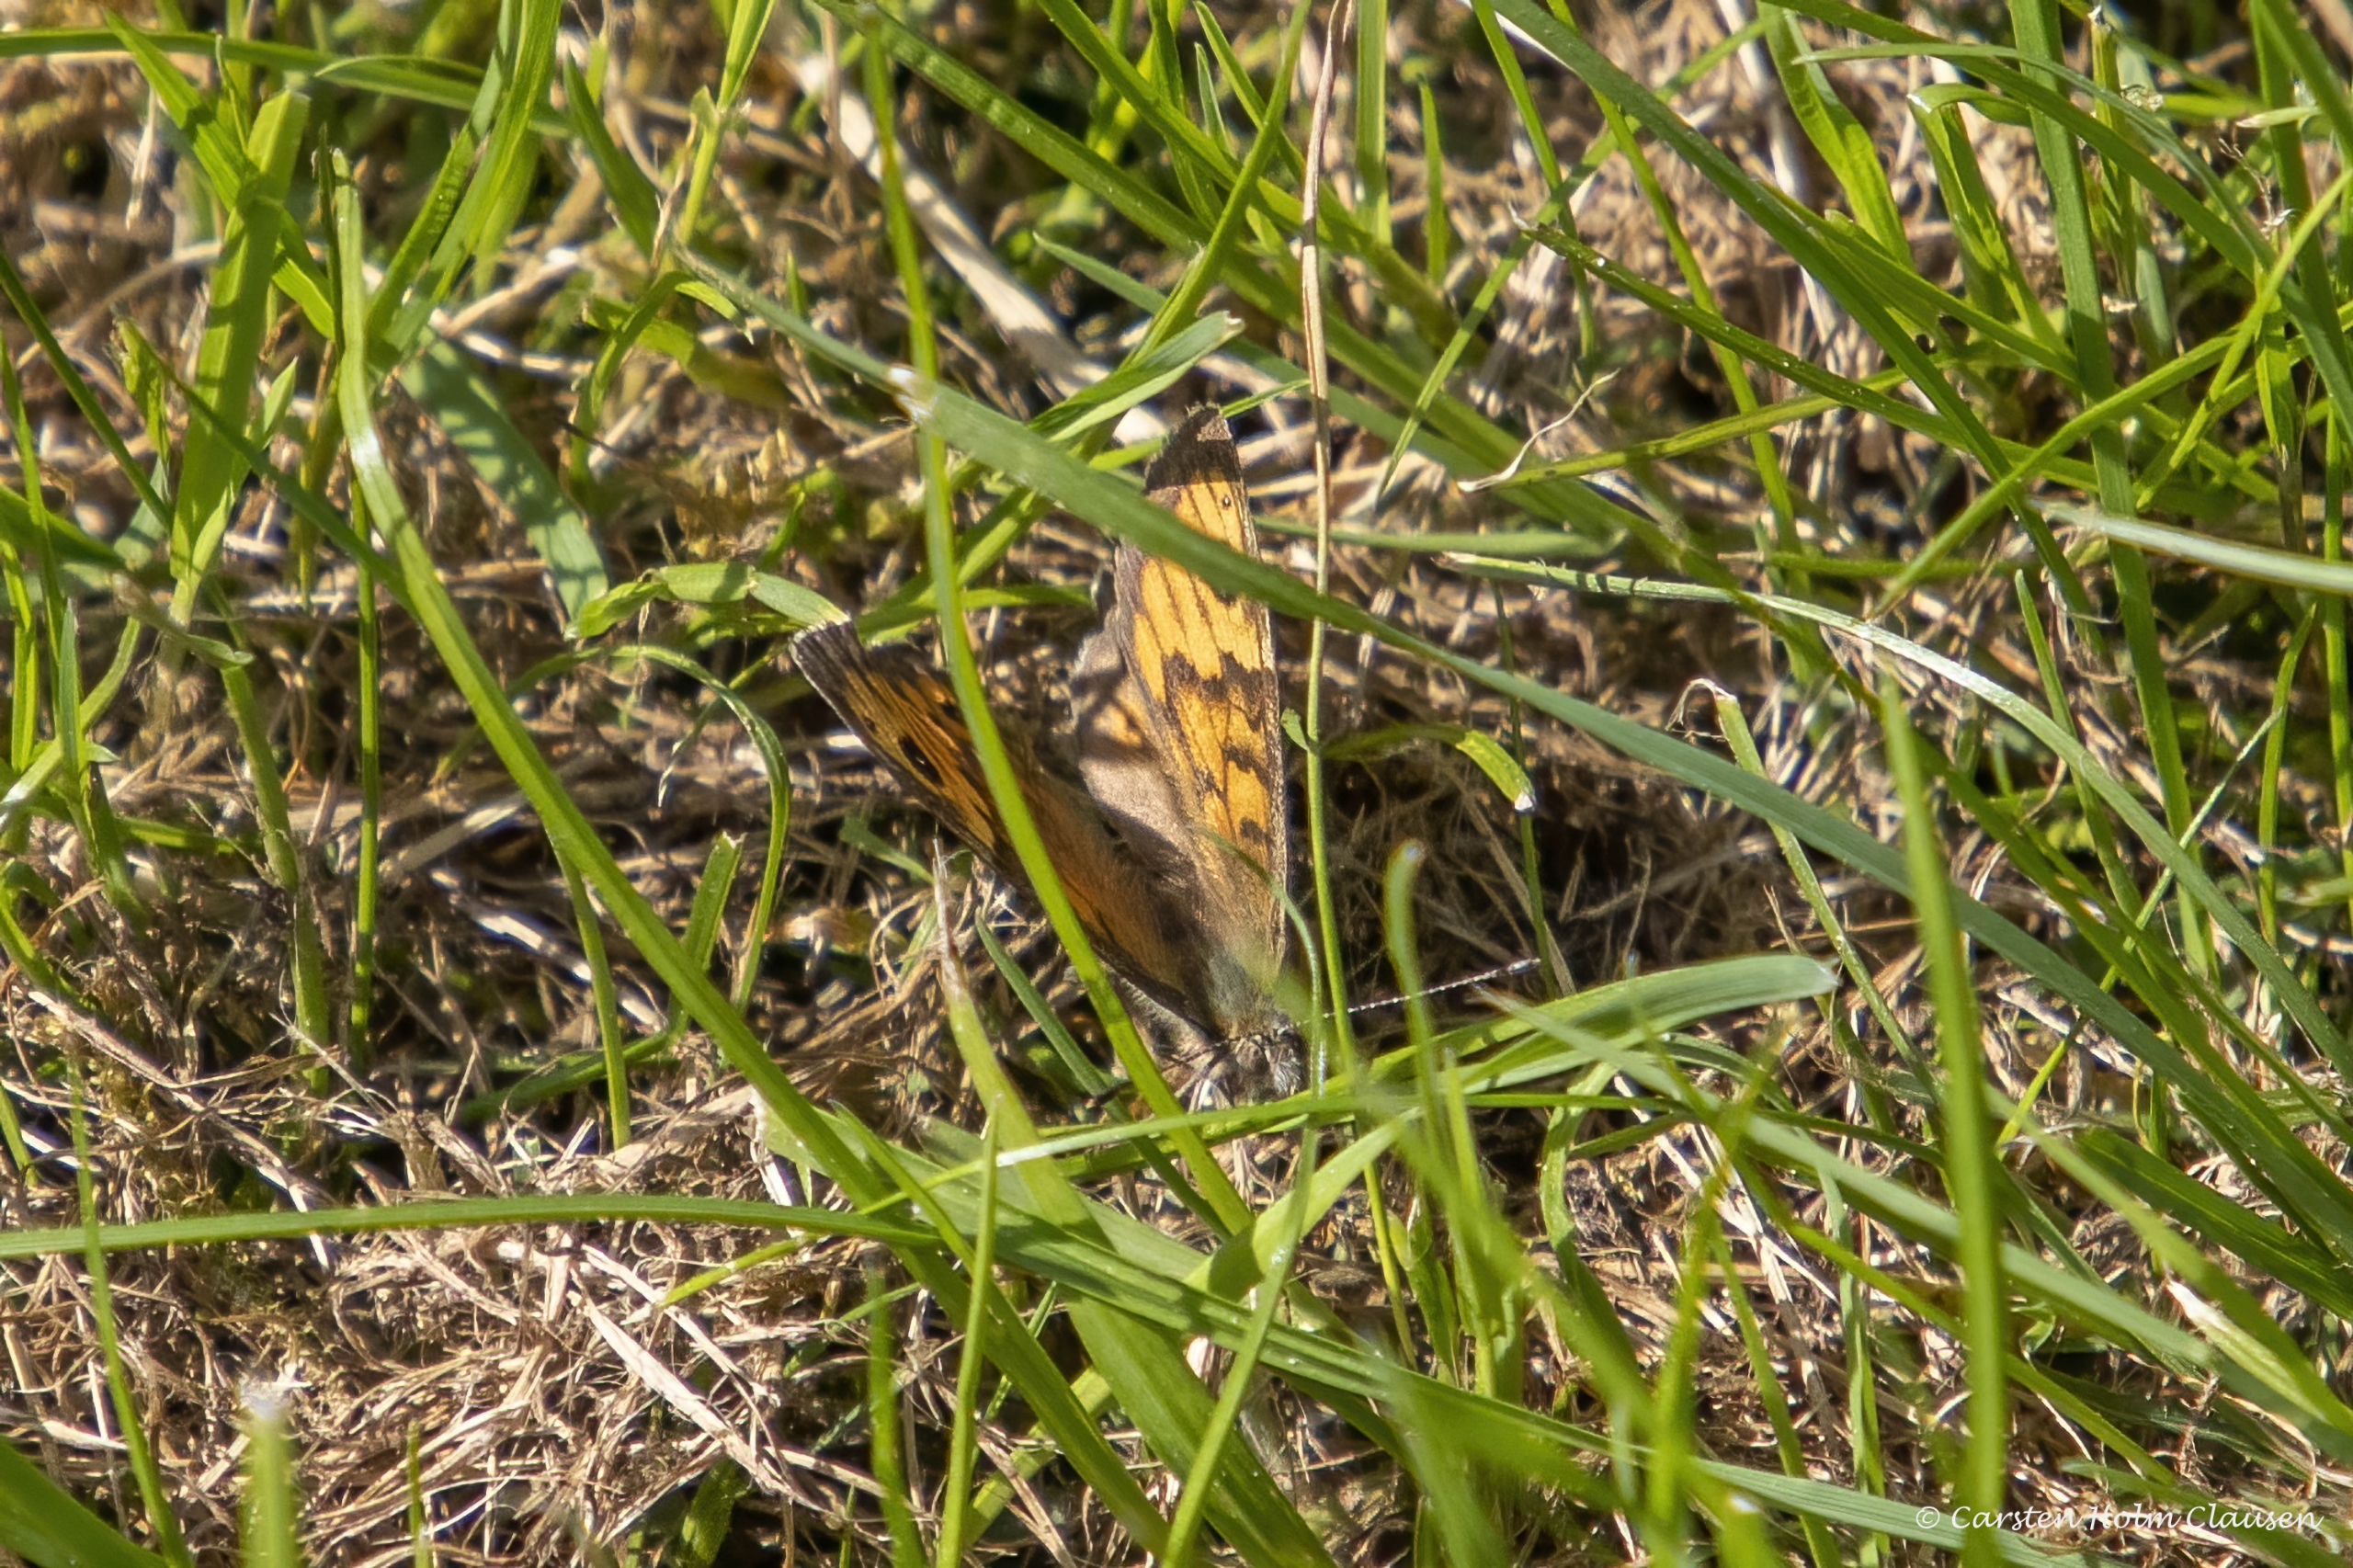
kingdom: Animalia
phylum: Arthropoda
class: Insecta
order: Lepidoptera
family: Nymphalidae
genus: Pararge
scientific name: Pararge Lasiommata megera
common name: Vejrandøje
